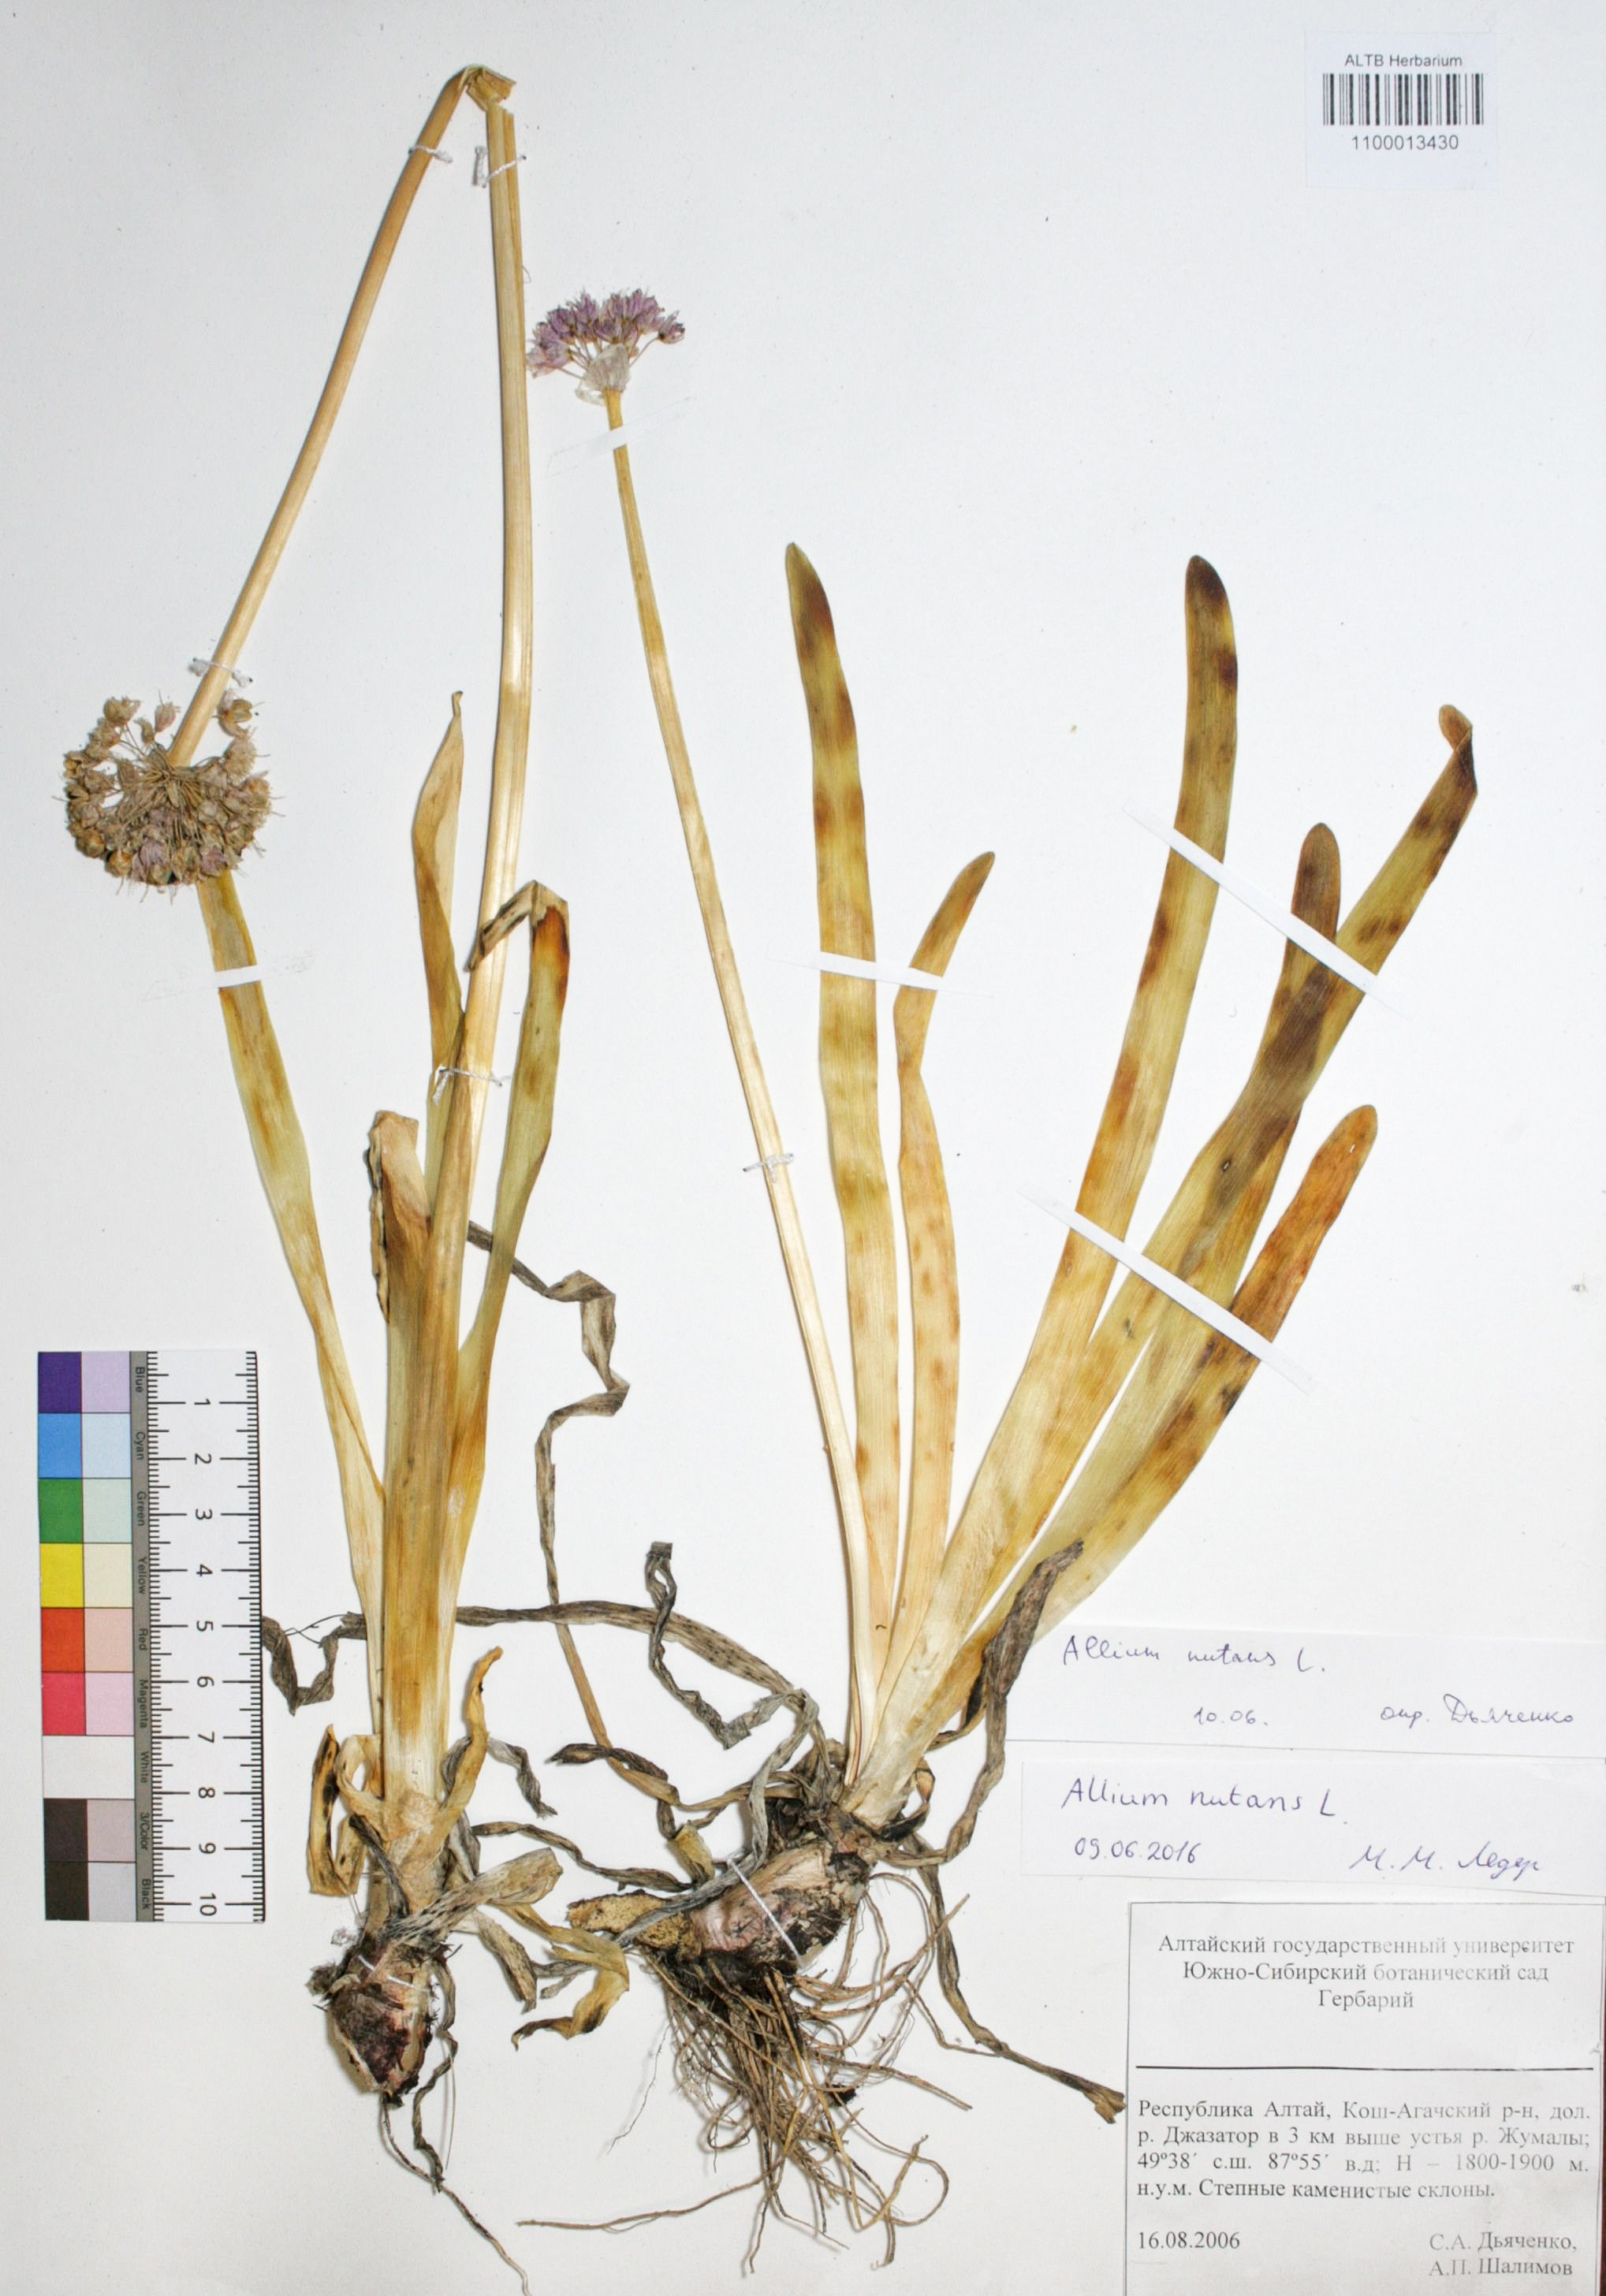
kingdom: Plantae
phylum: Tracheophyta
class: Liliopsida
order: Asparagales
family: Amaryllidaceae
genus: Allium
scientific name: Allium nutans
